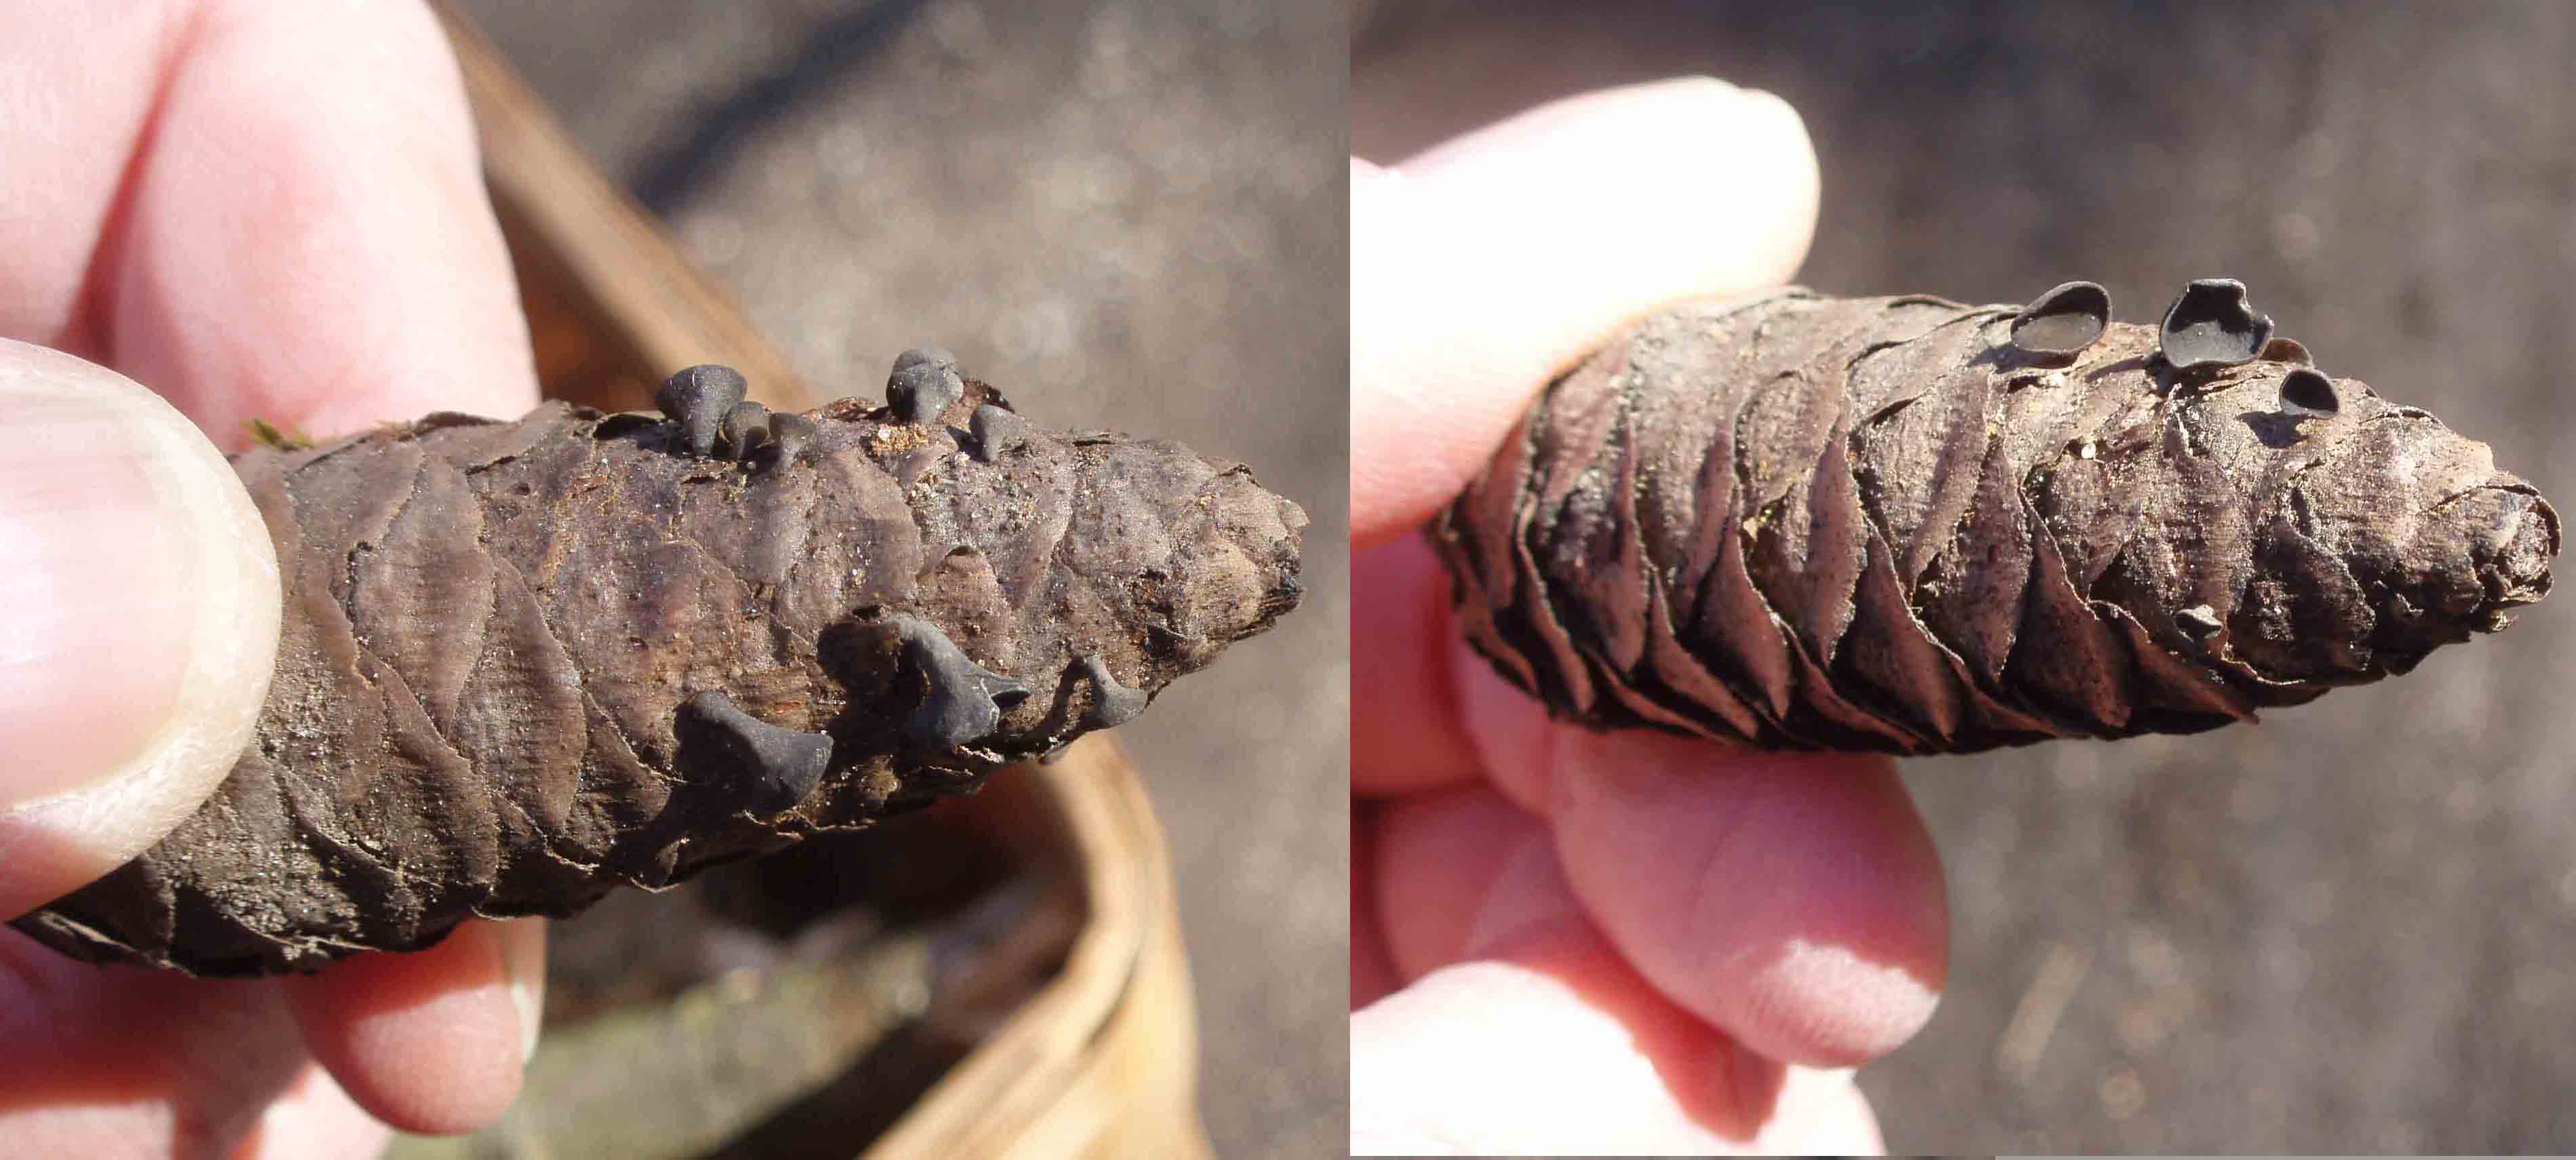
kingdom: Fungi
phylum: Ascomycota
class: Leotiomycetes
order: Helotiales
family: Rutstroemiaceae
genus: Rutstroemia
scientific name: Rutstroemia bulgarioides
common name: kogleskive
